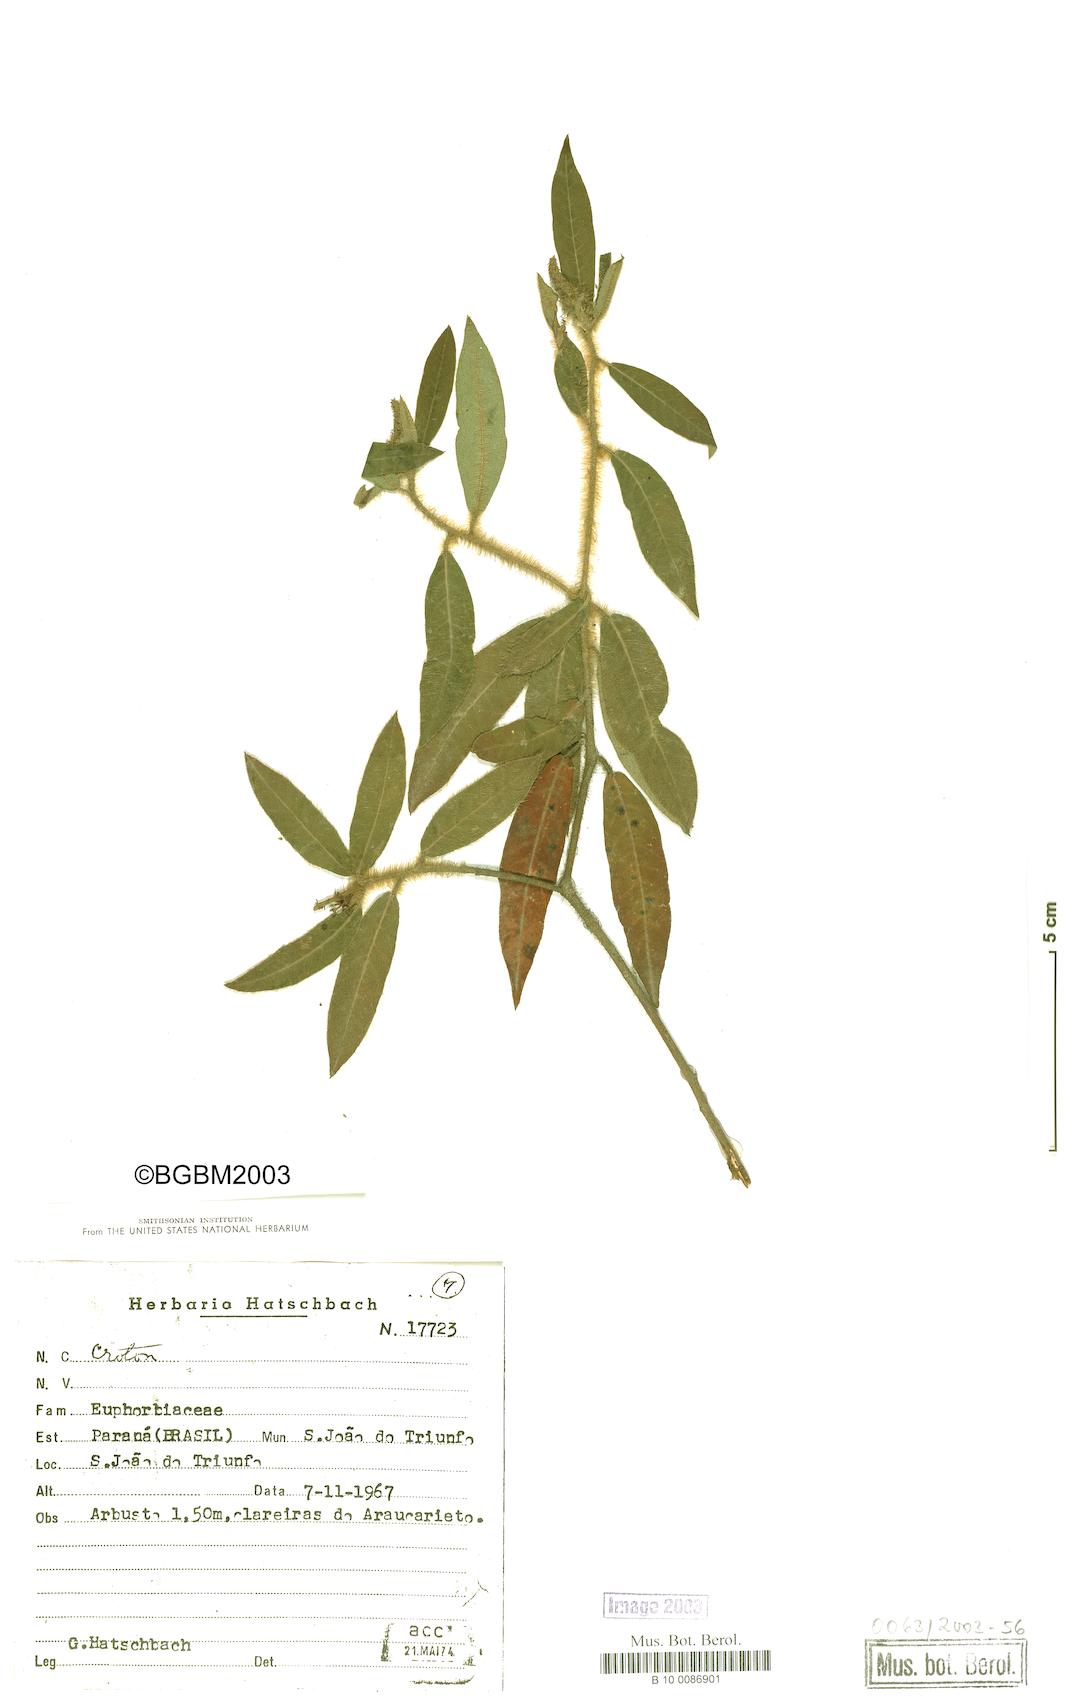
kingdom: Plantae
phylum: Tracheophyta
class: Magnoliopsida
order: Malpighiales
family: Euphorbiaceae
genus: Croton
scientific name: Croton
